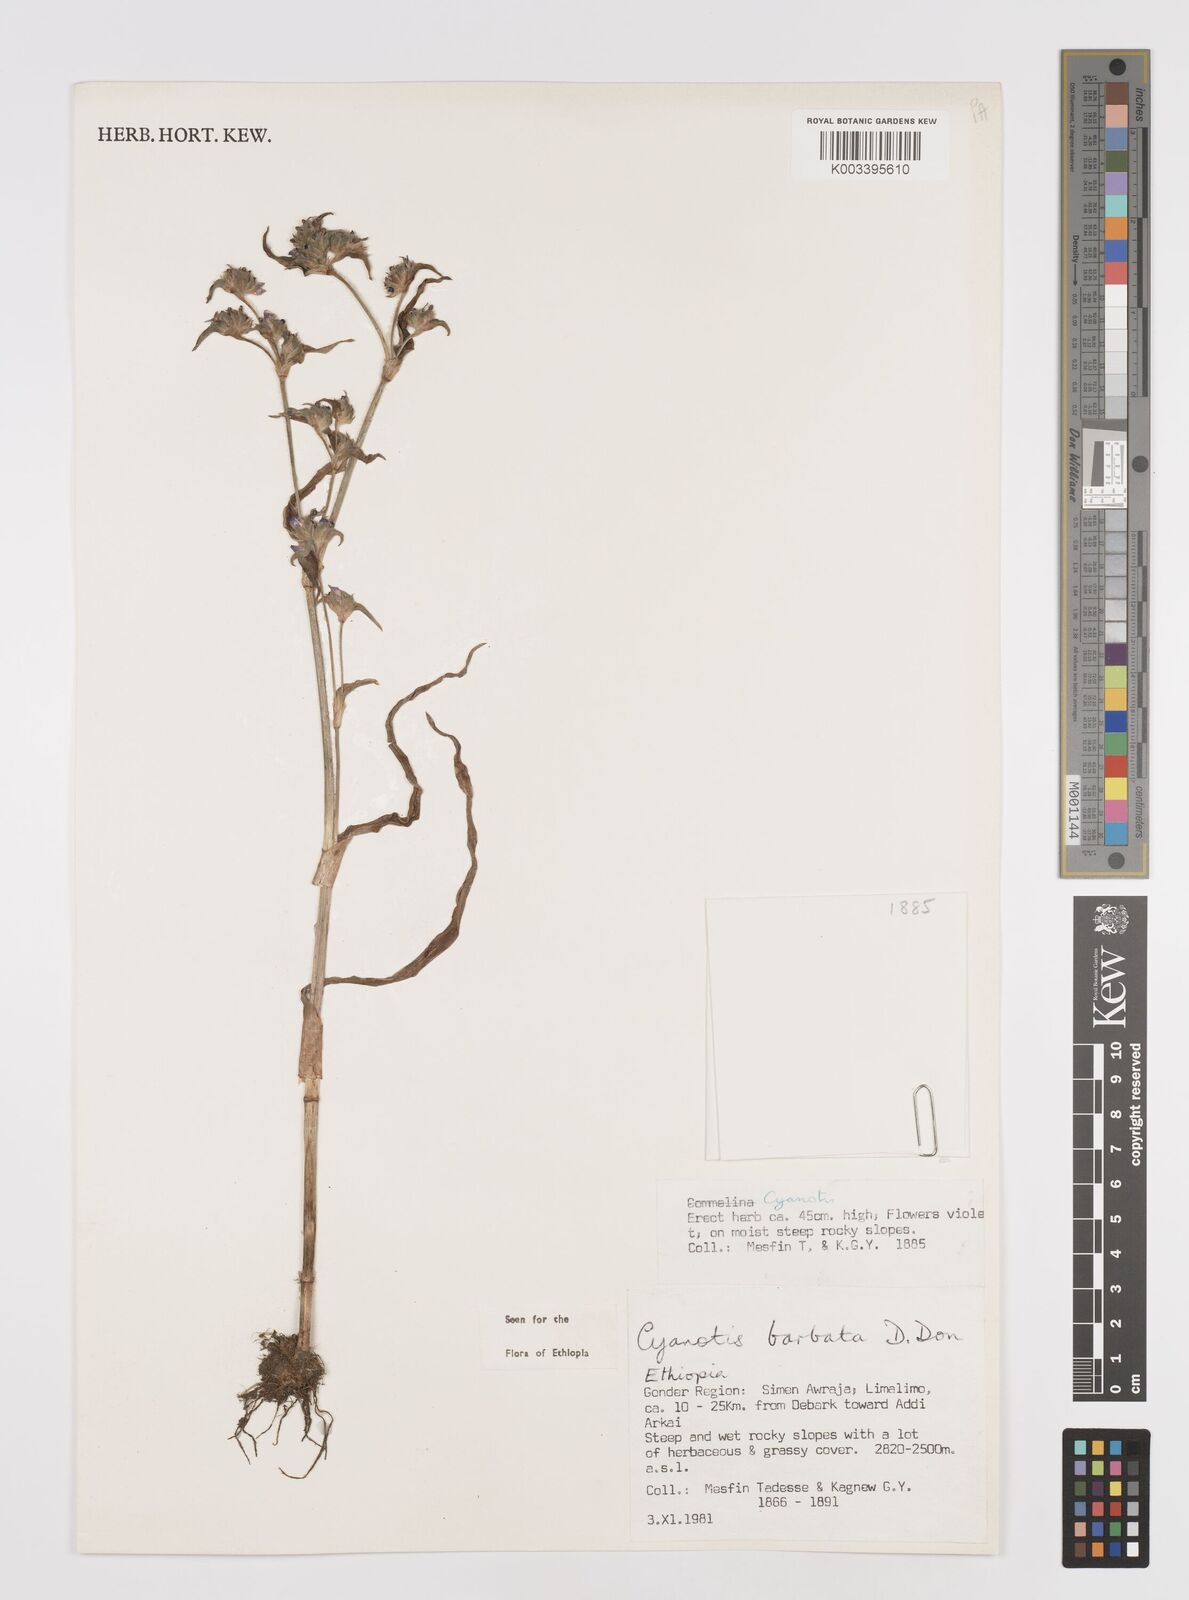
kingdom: Plantae
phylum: Tracheophyta
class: Liliopsida
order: Commelinales
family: Commelinaceae
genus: Cyanotis
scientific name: Cyanotis vaga
